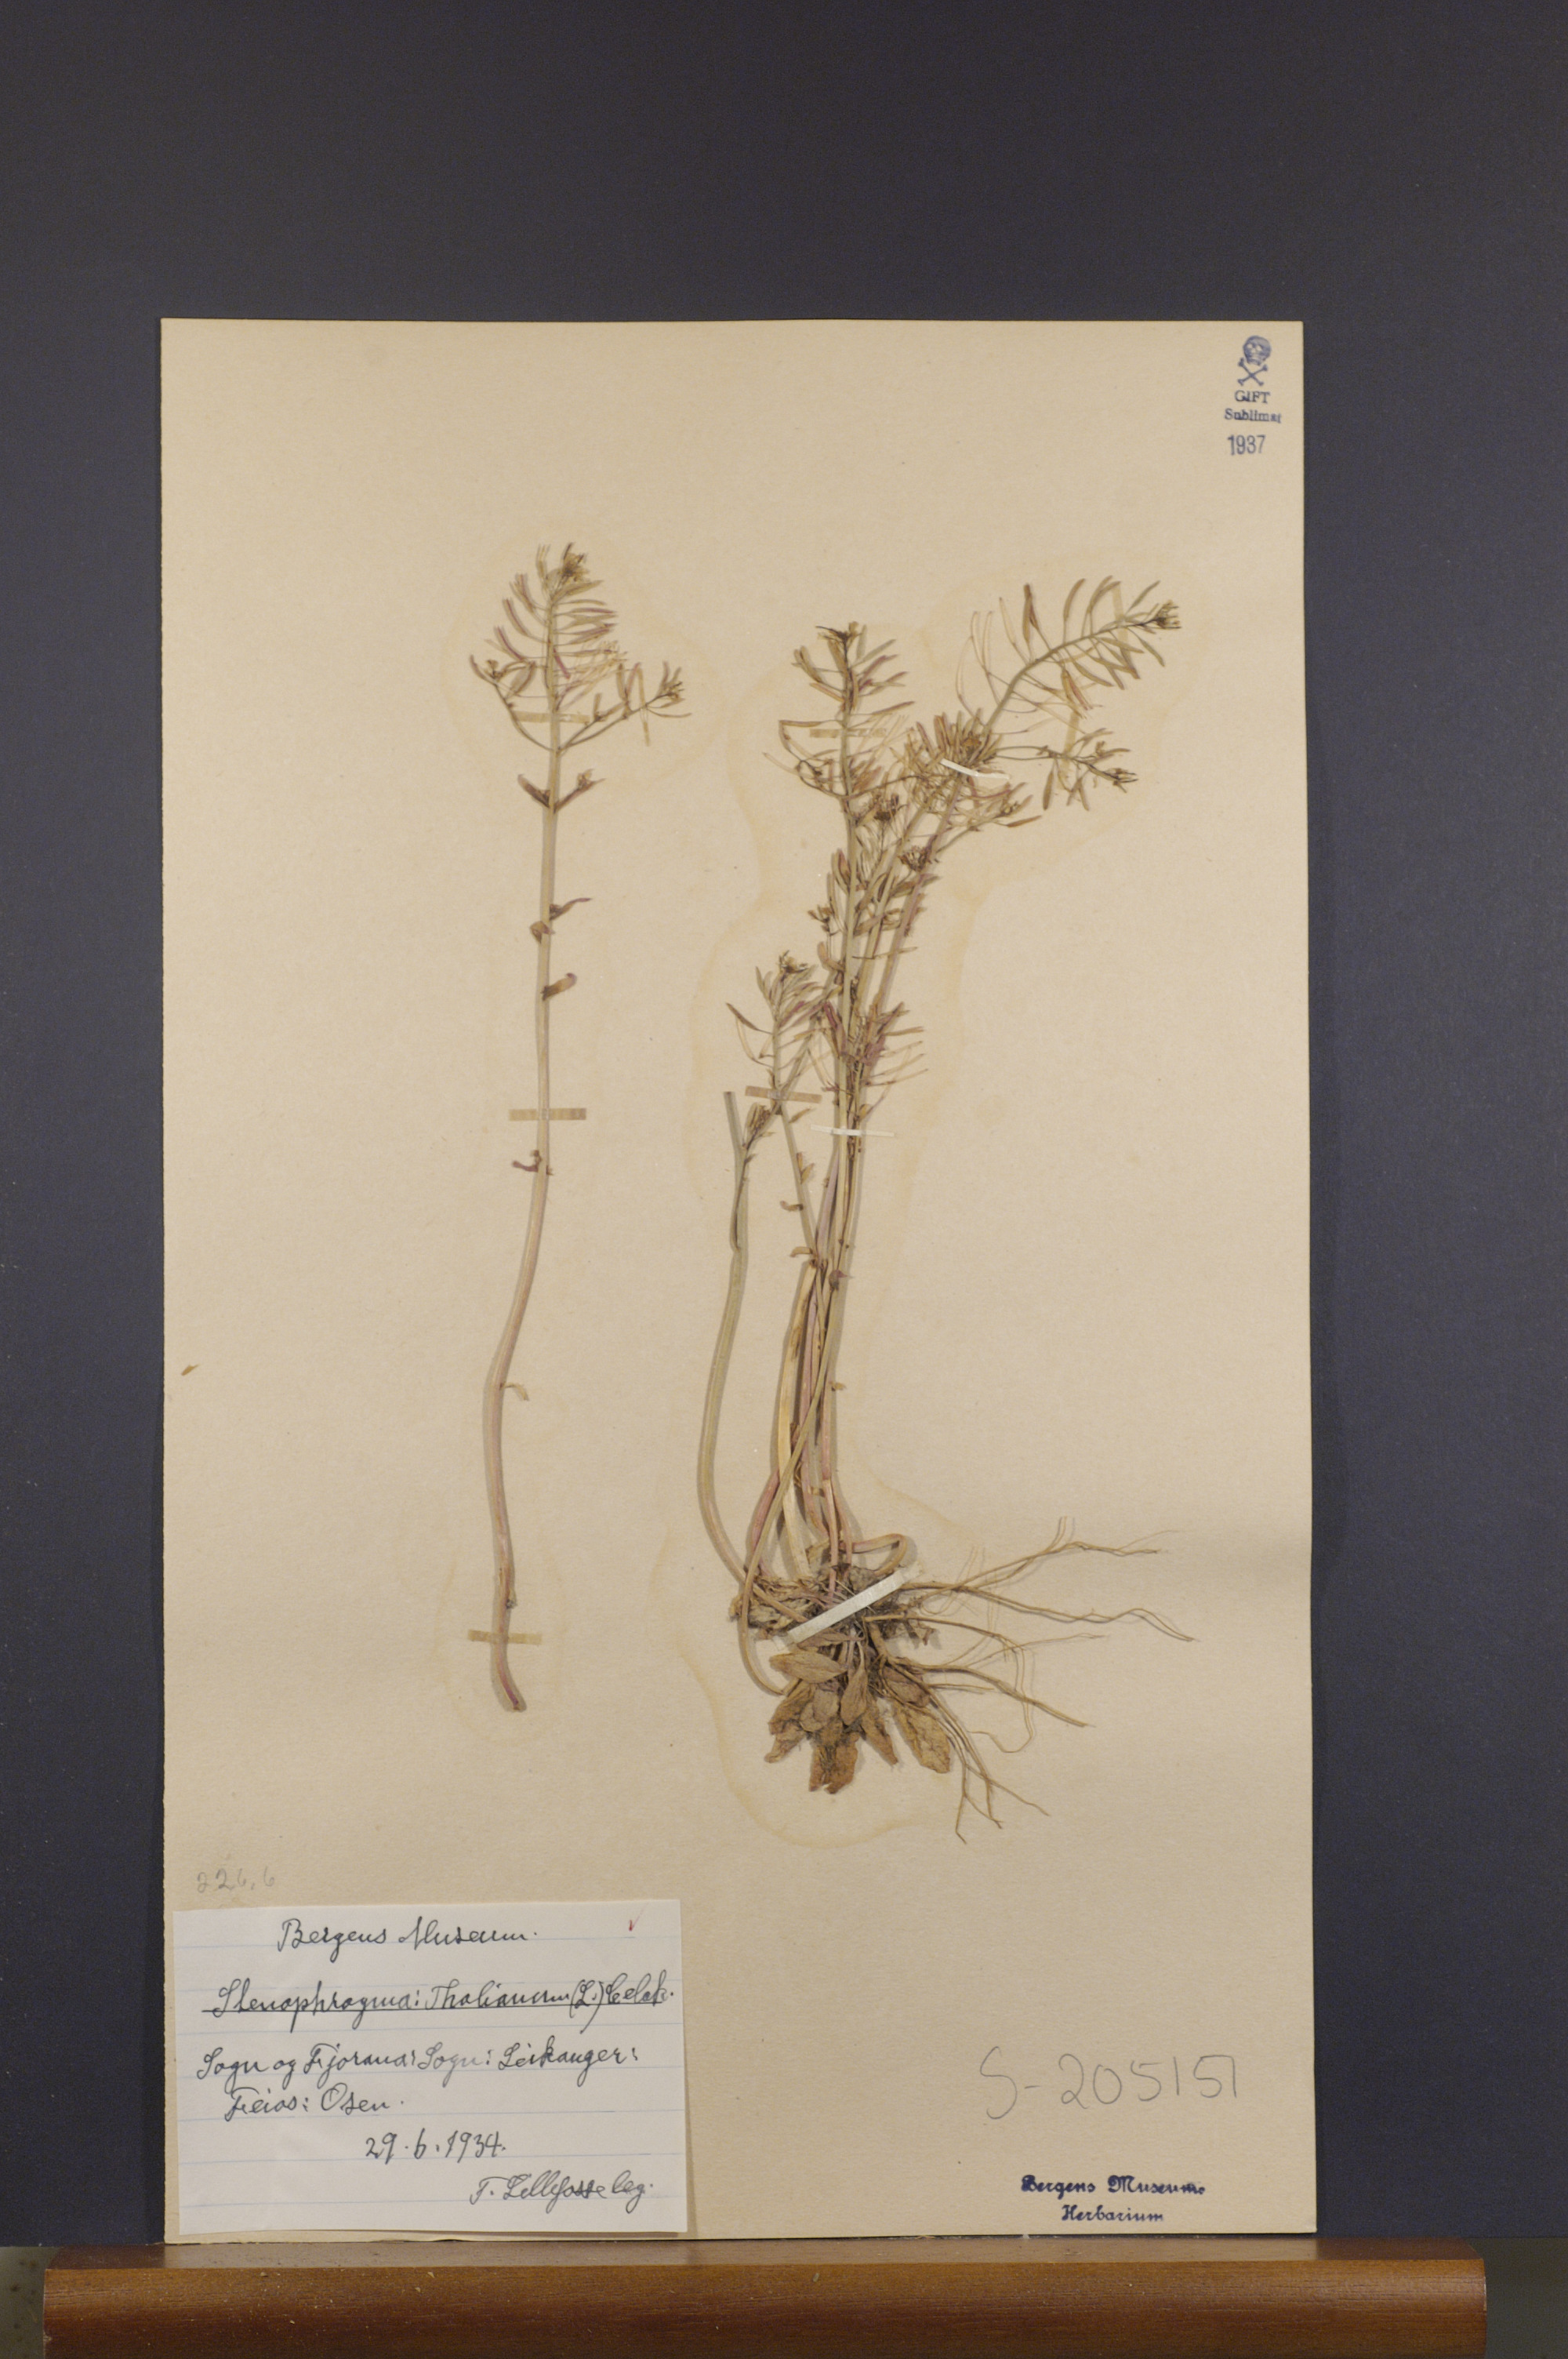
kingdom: Plantae
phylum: Tracheophyta
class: Magnoliopsida
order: Brassicales
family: Brassicaceae
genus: Arabidopsis
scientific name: Arabidopsis thaliana
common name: Thale cress
